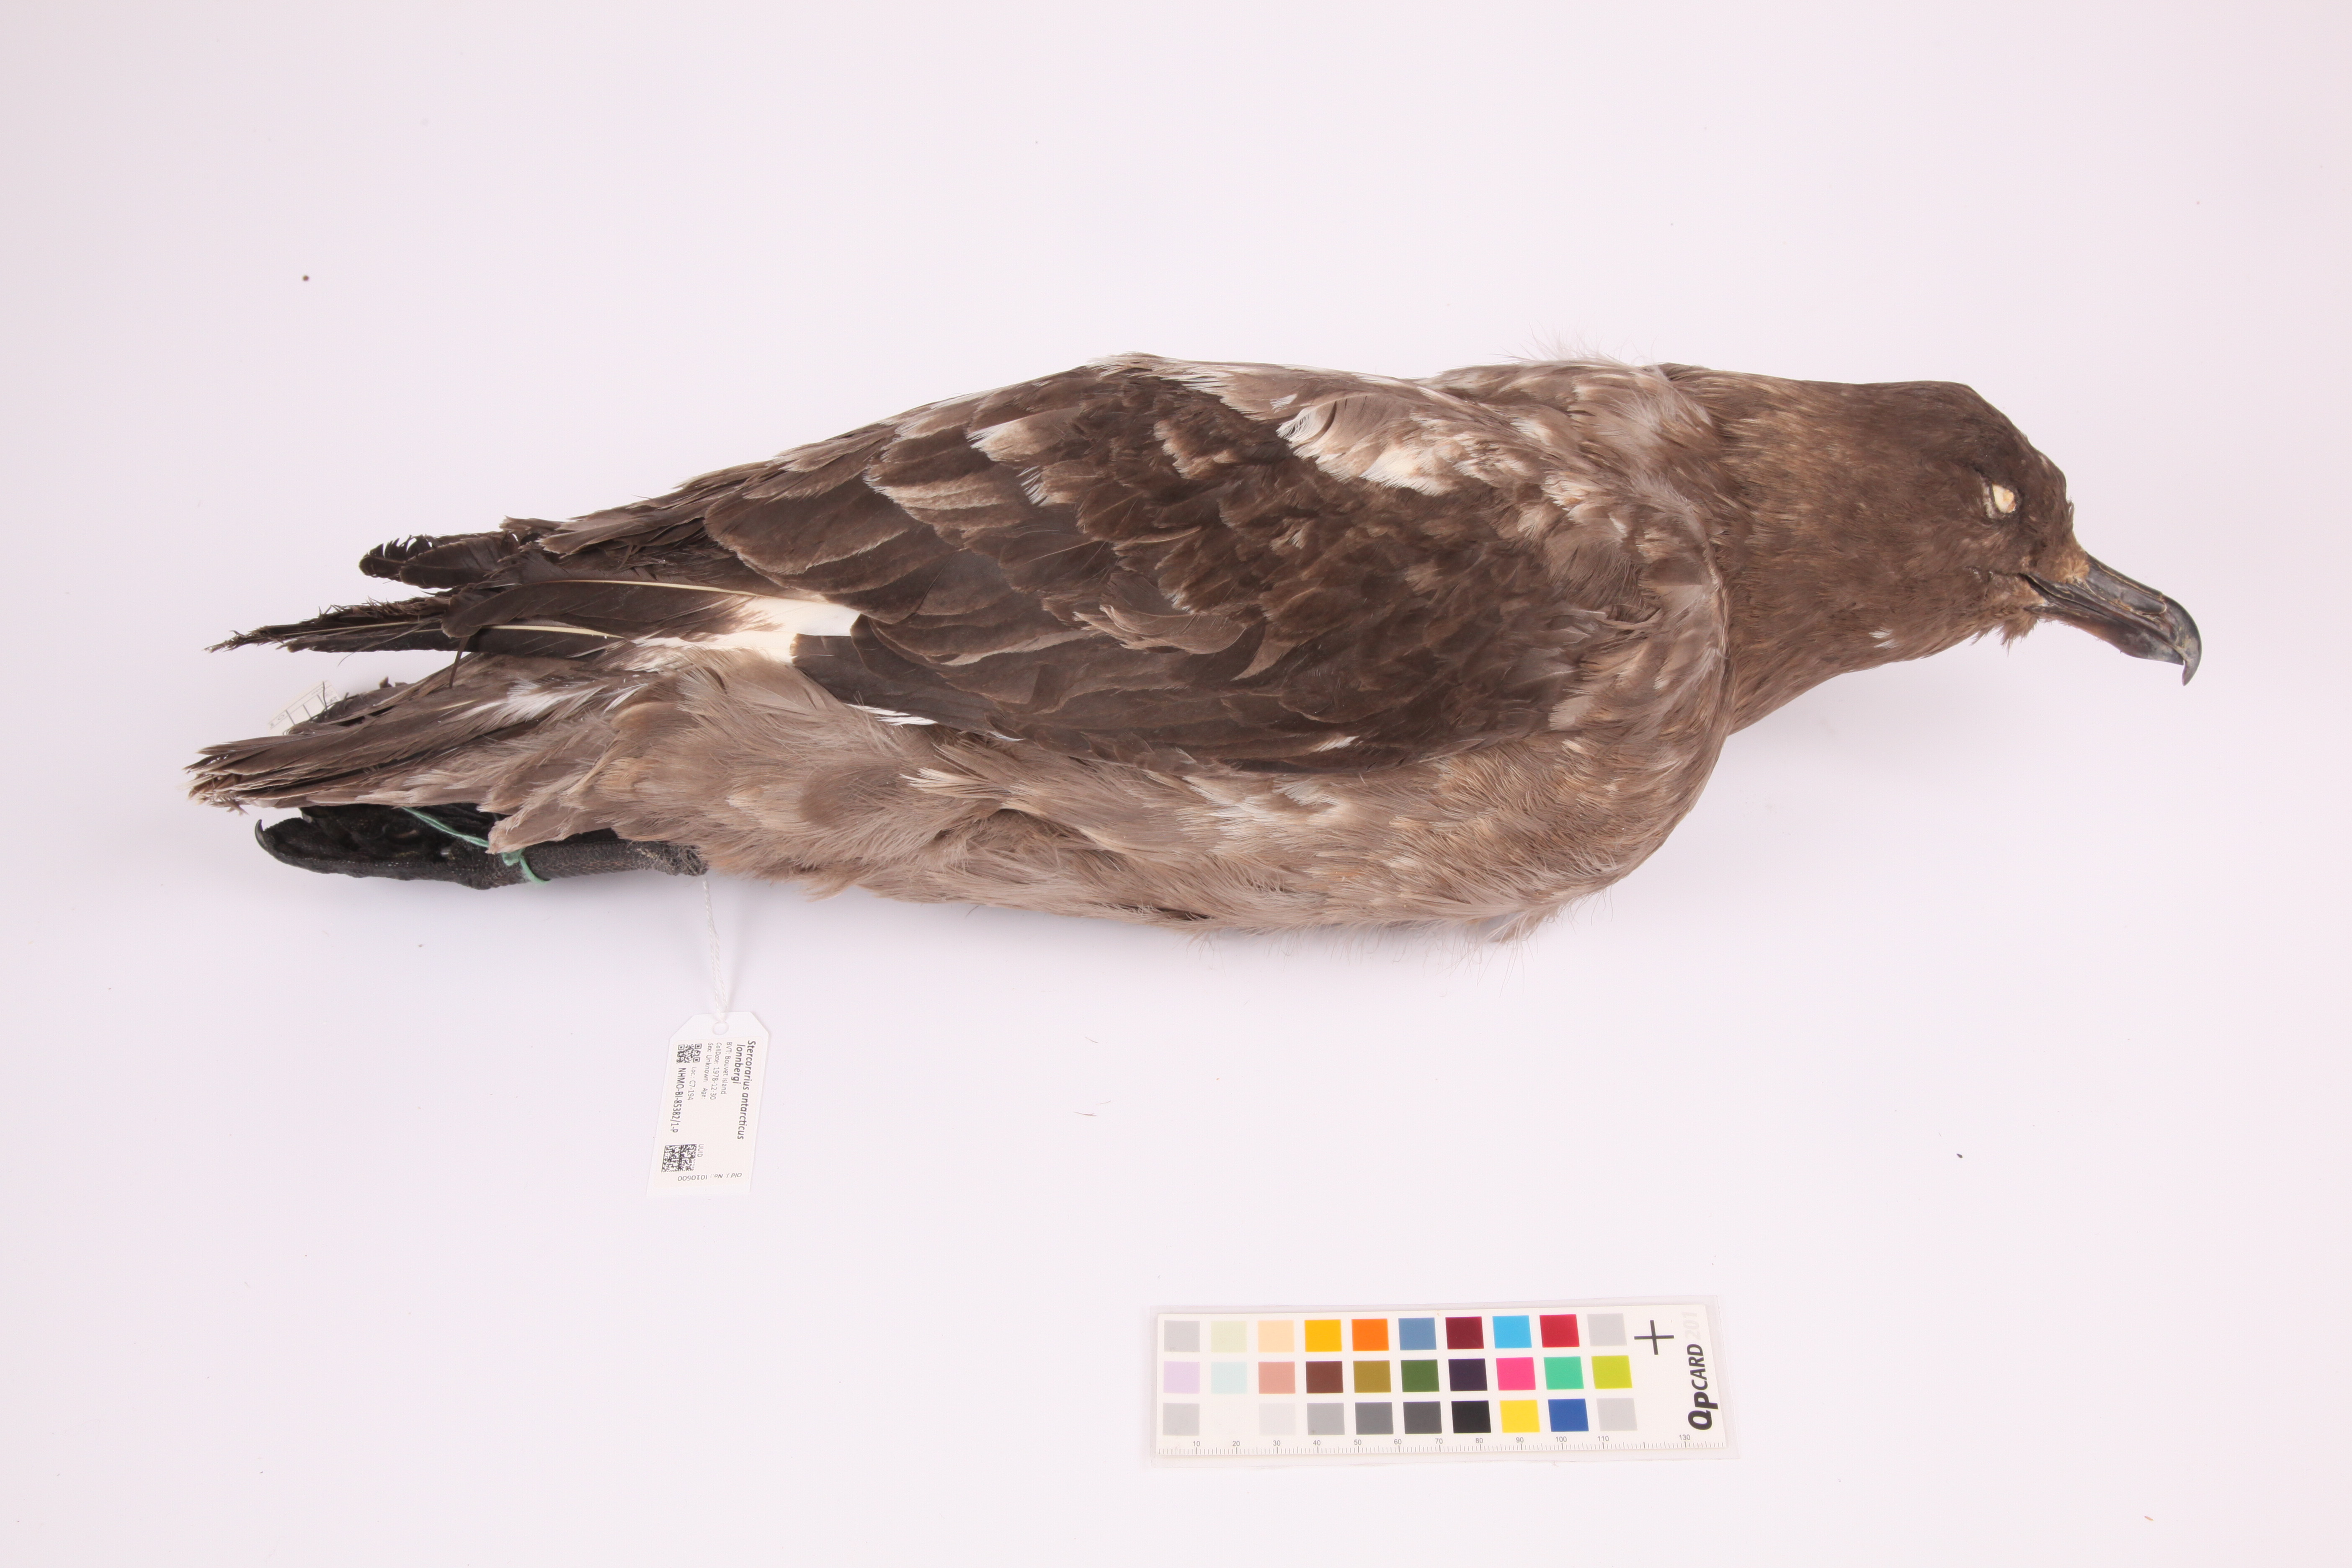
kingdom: Animalia
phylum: Chordata
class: Aves
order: Charadriiformes
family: Stercorariidae
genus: Stercorarius
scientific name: Stercorarius antarcticus
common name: Brown skua
